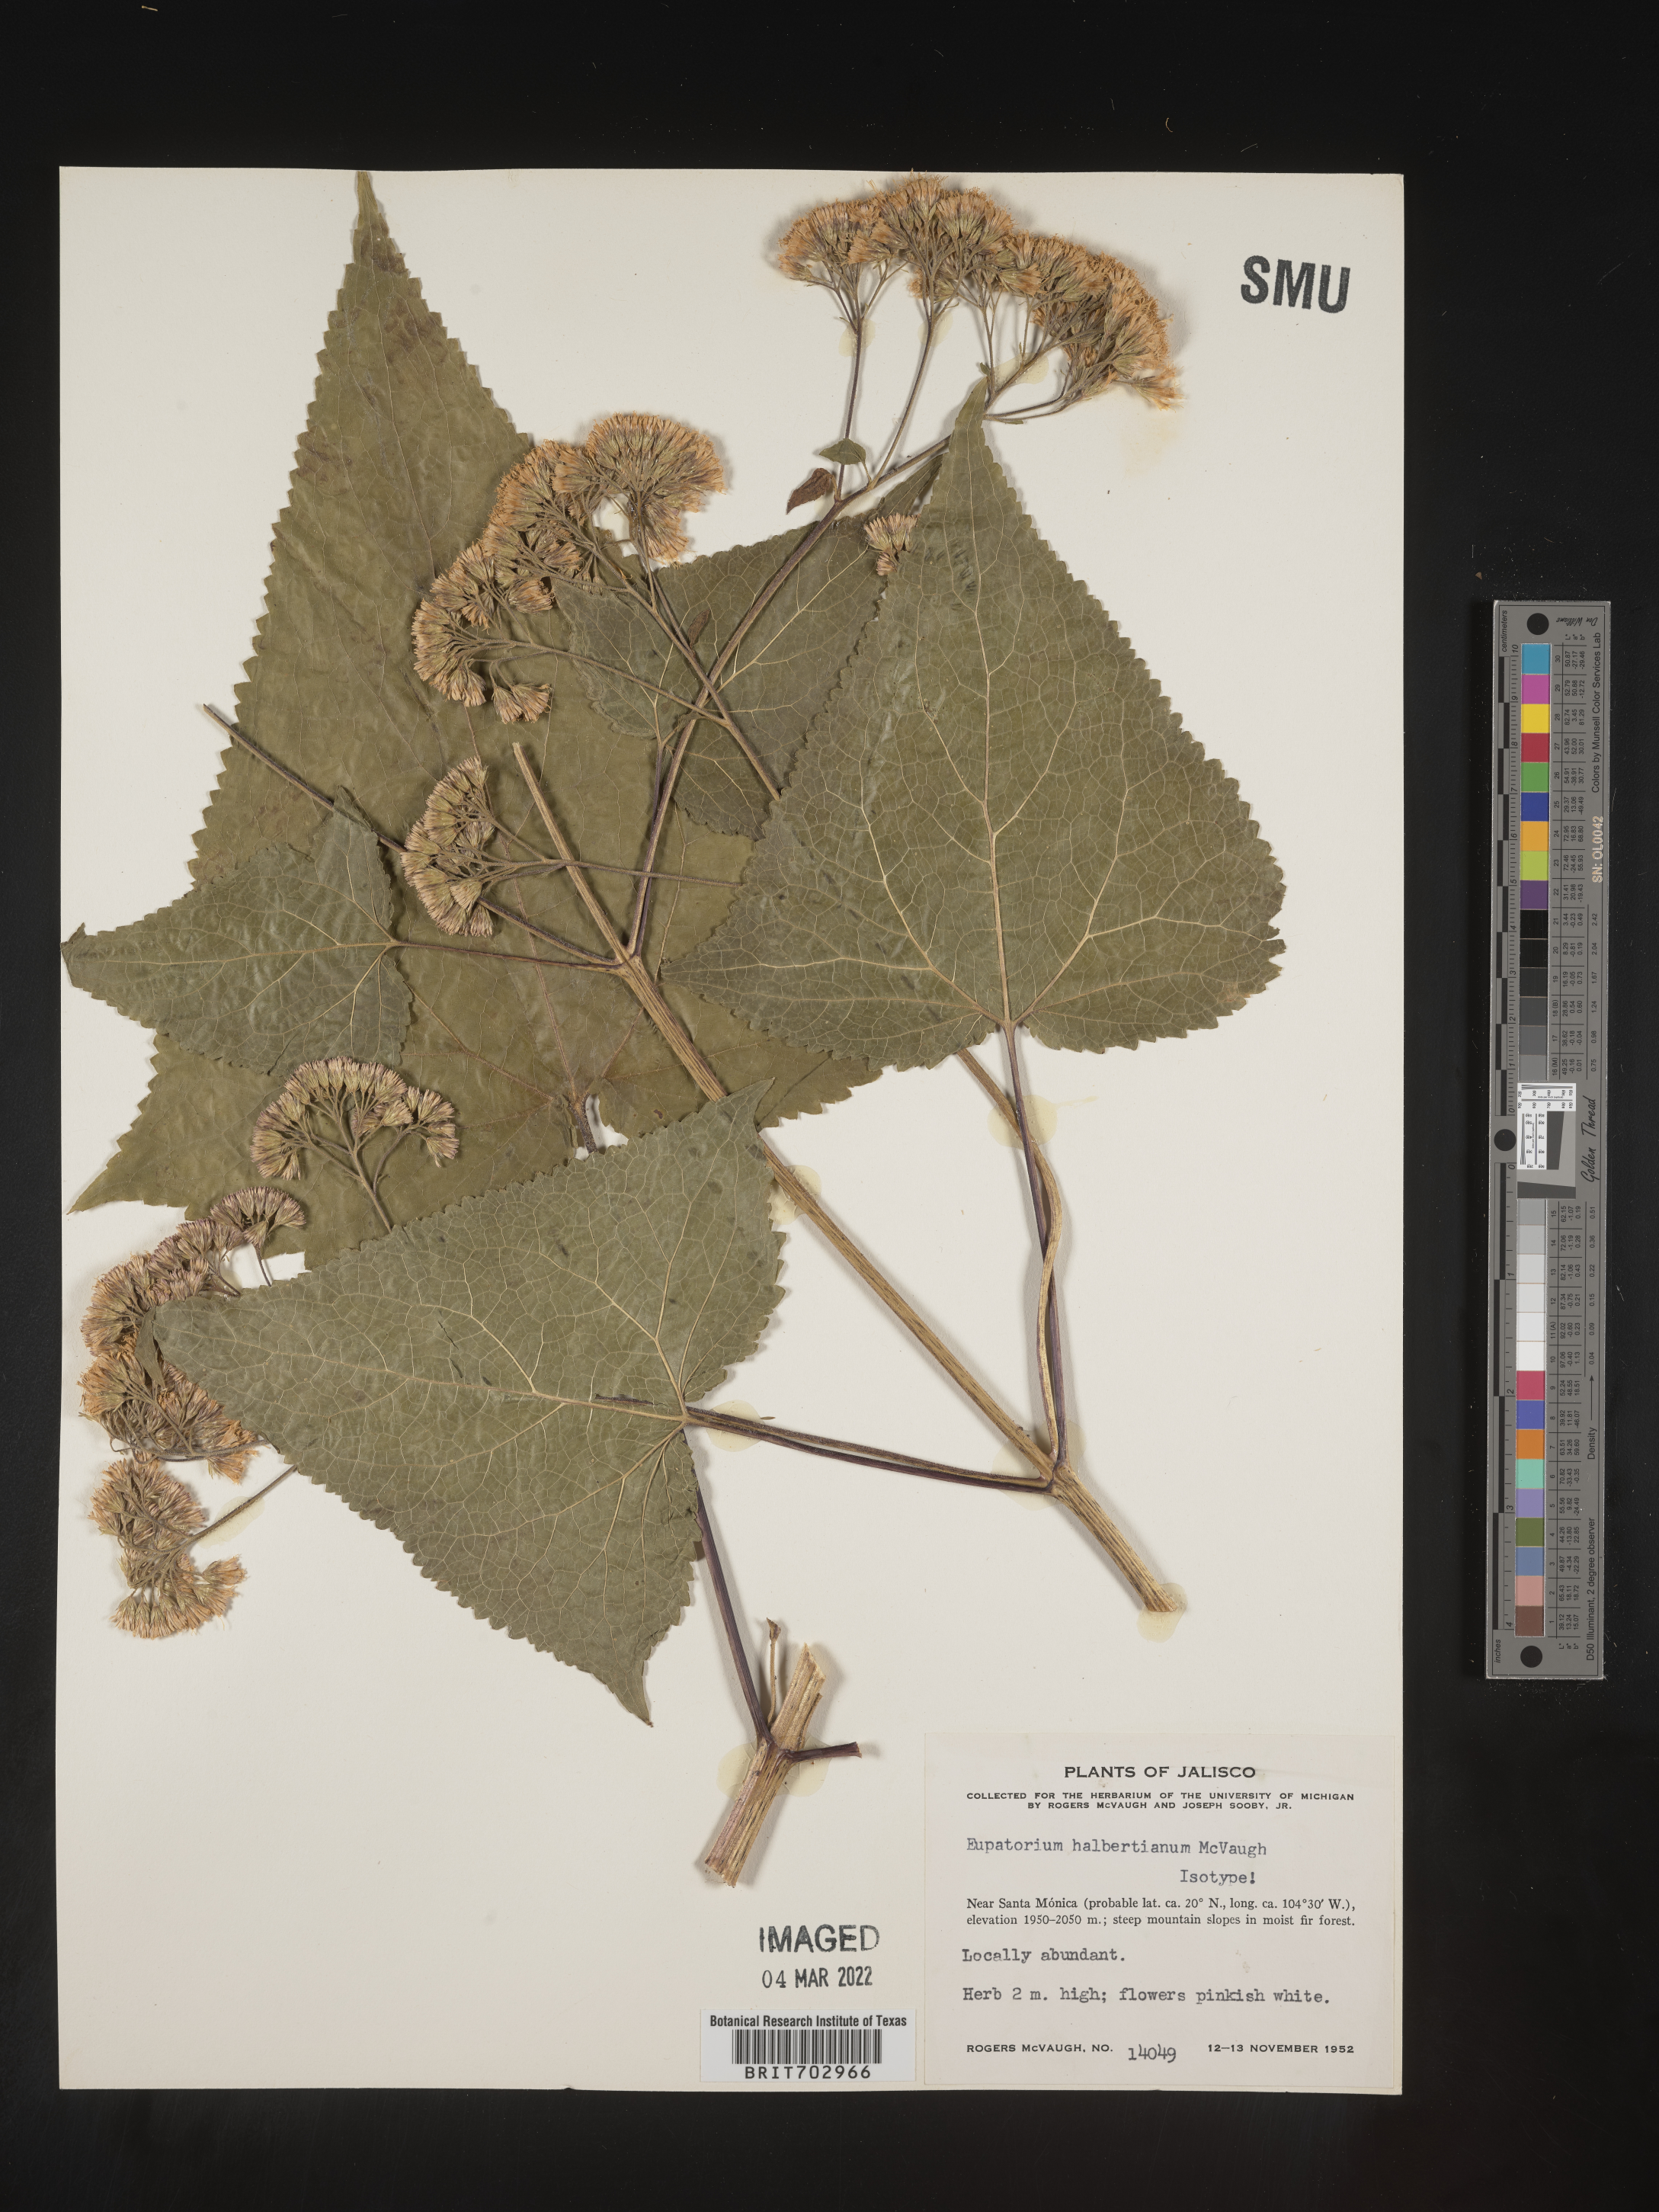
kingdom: Plantae
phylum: Tracheophyta
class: Magnoliopsida
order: Asterales
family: Asteraceae
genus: Eupatorium
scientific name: Eupatorium
